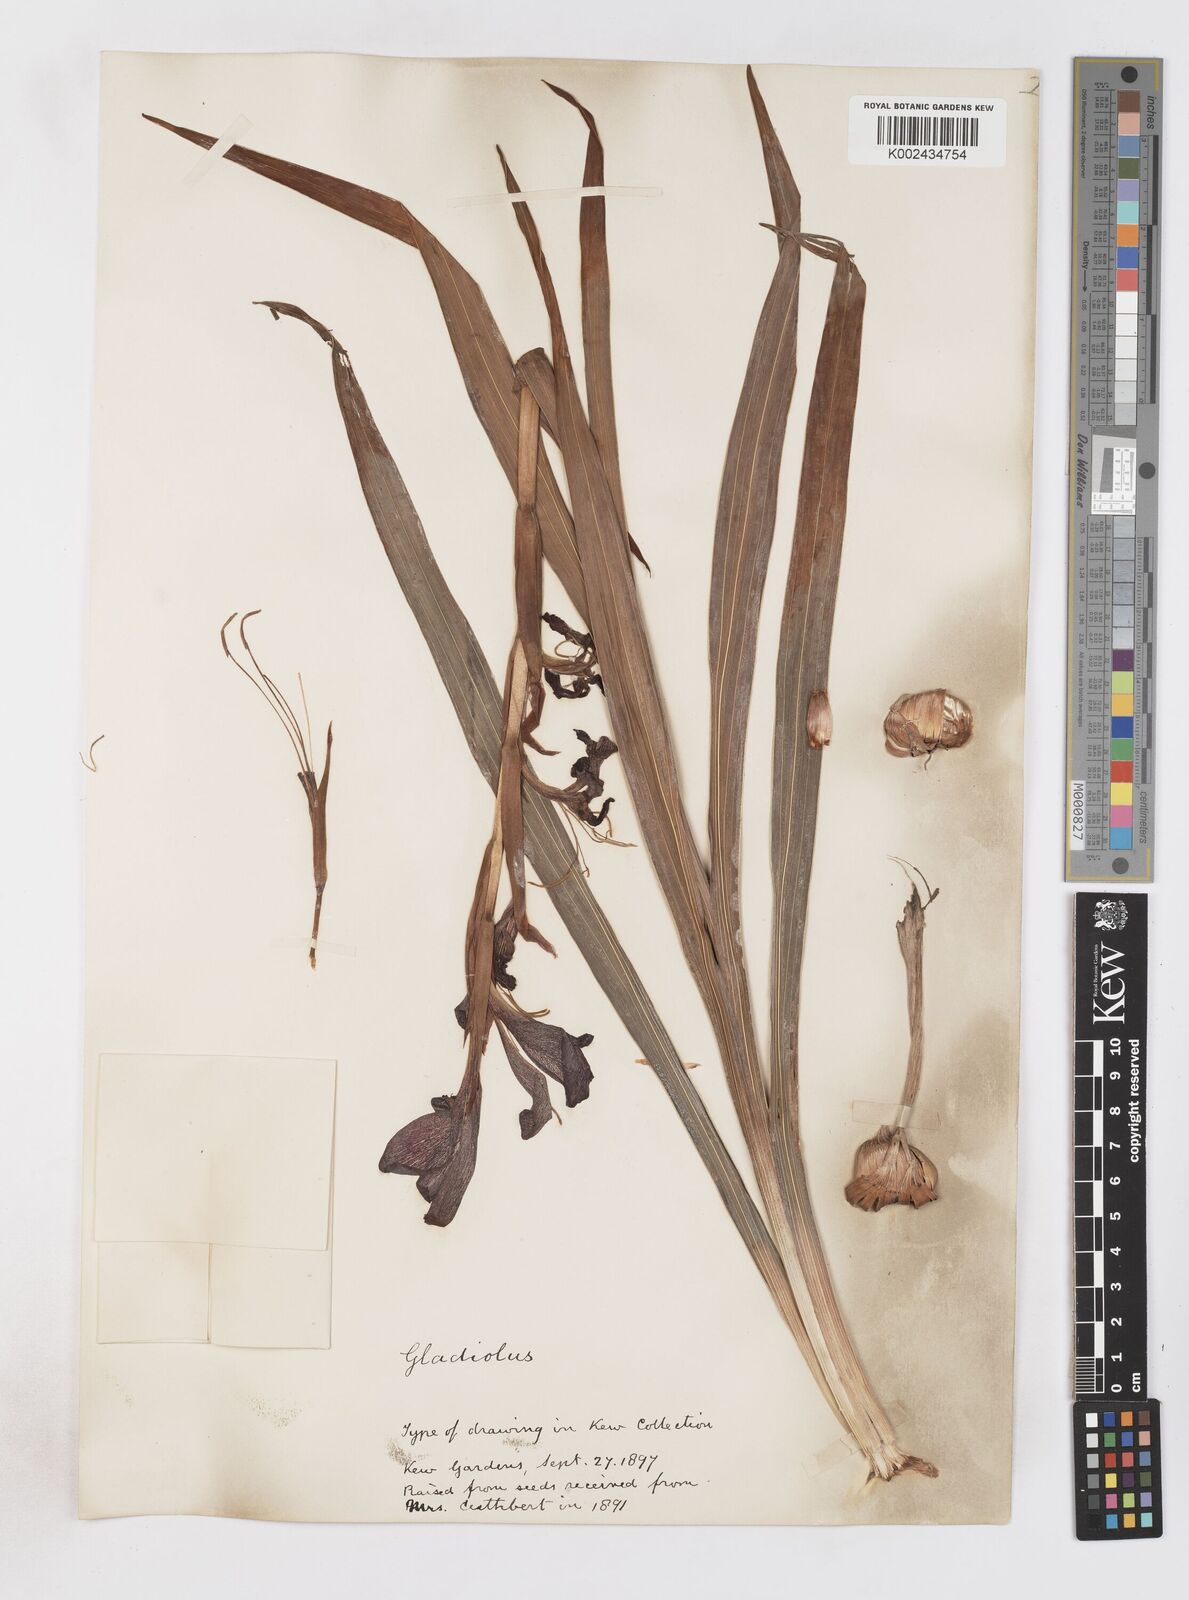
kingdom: Plantae
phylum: Tracheophyta
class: Liliopsida
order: Asparagales
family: Iridaceae
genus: Gladiolus
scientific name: Gladiolus
